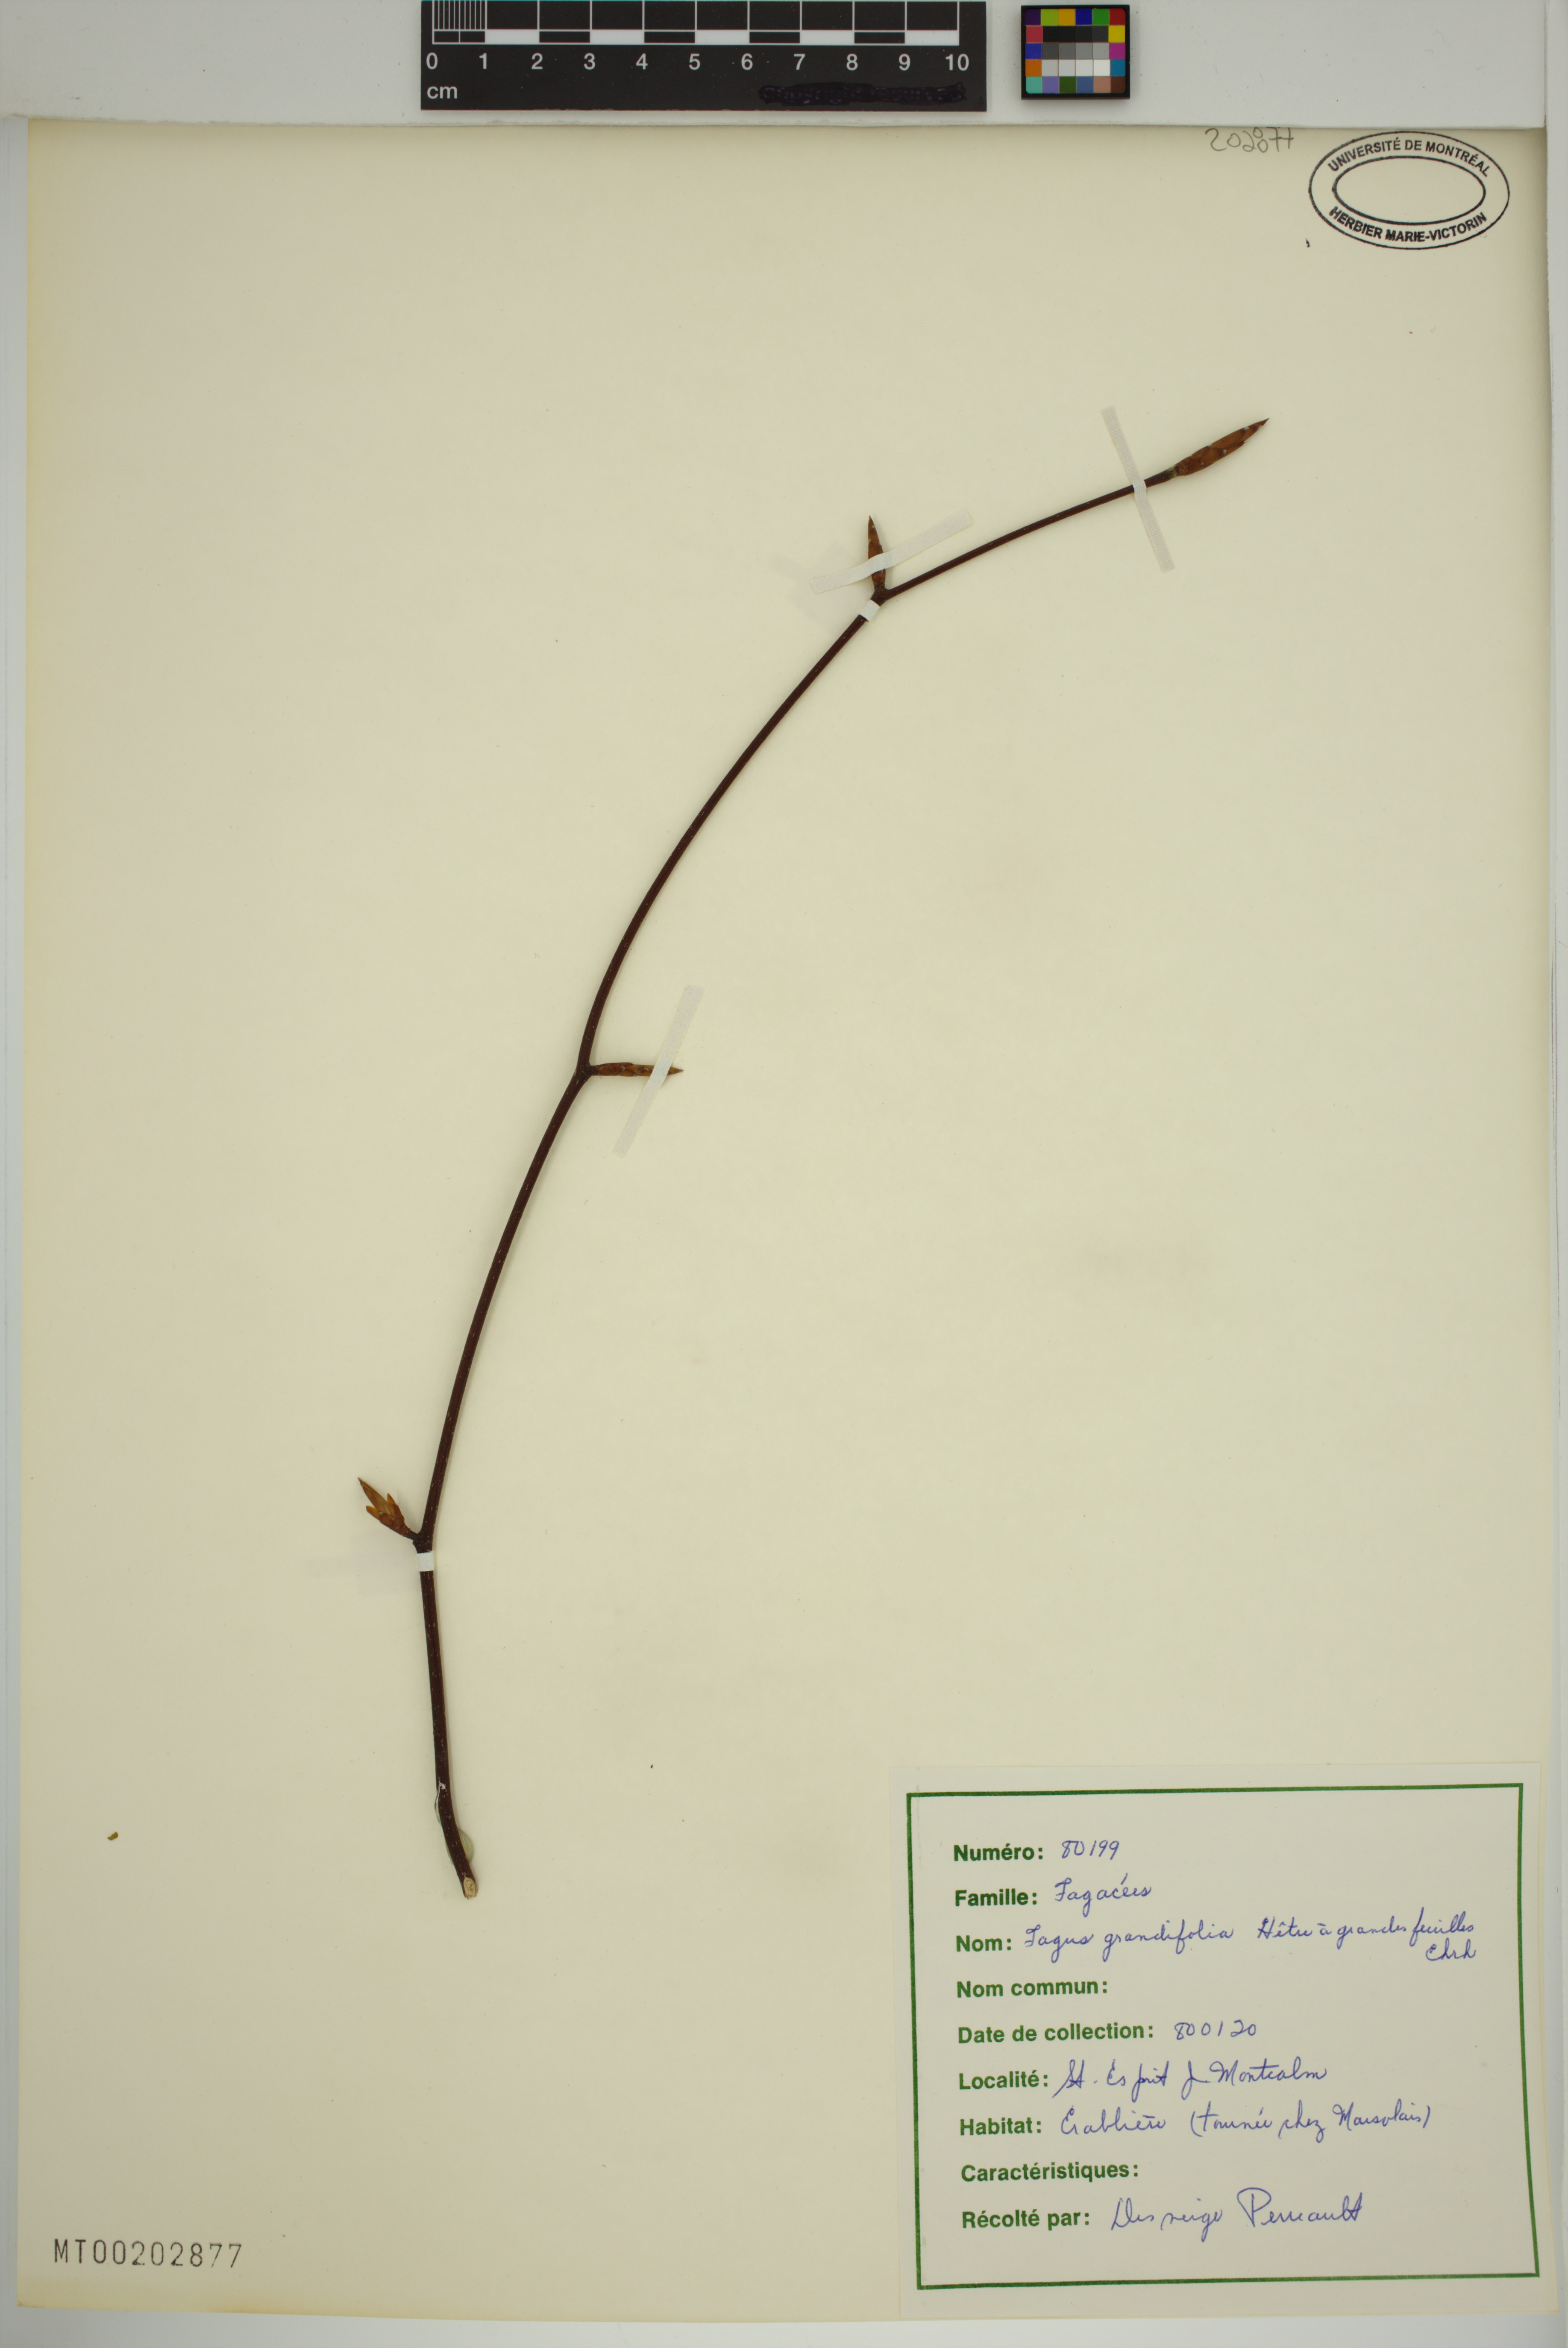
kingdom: Plantae
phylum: Tracheophyta
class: Magnoliopsida
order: Fagales
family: Fagaceae
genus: Fagus
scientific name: Fagus grandifolia
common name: American beech
